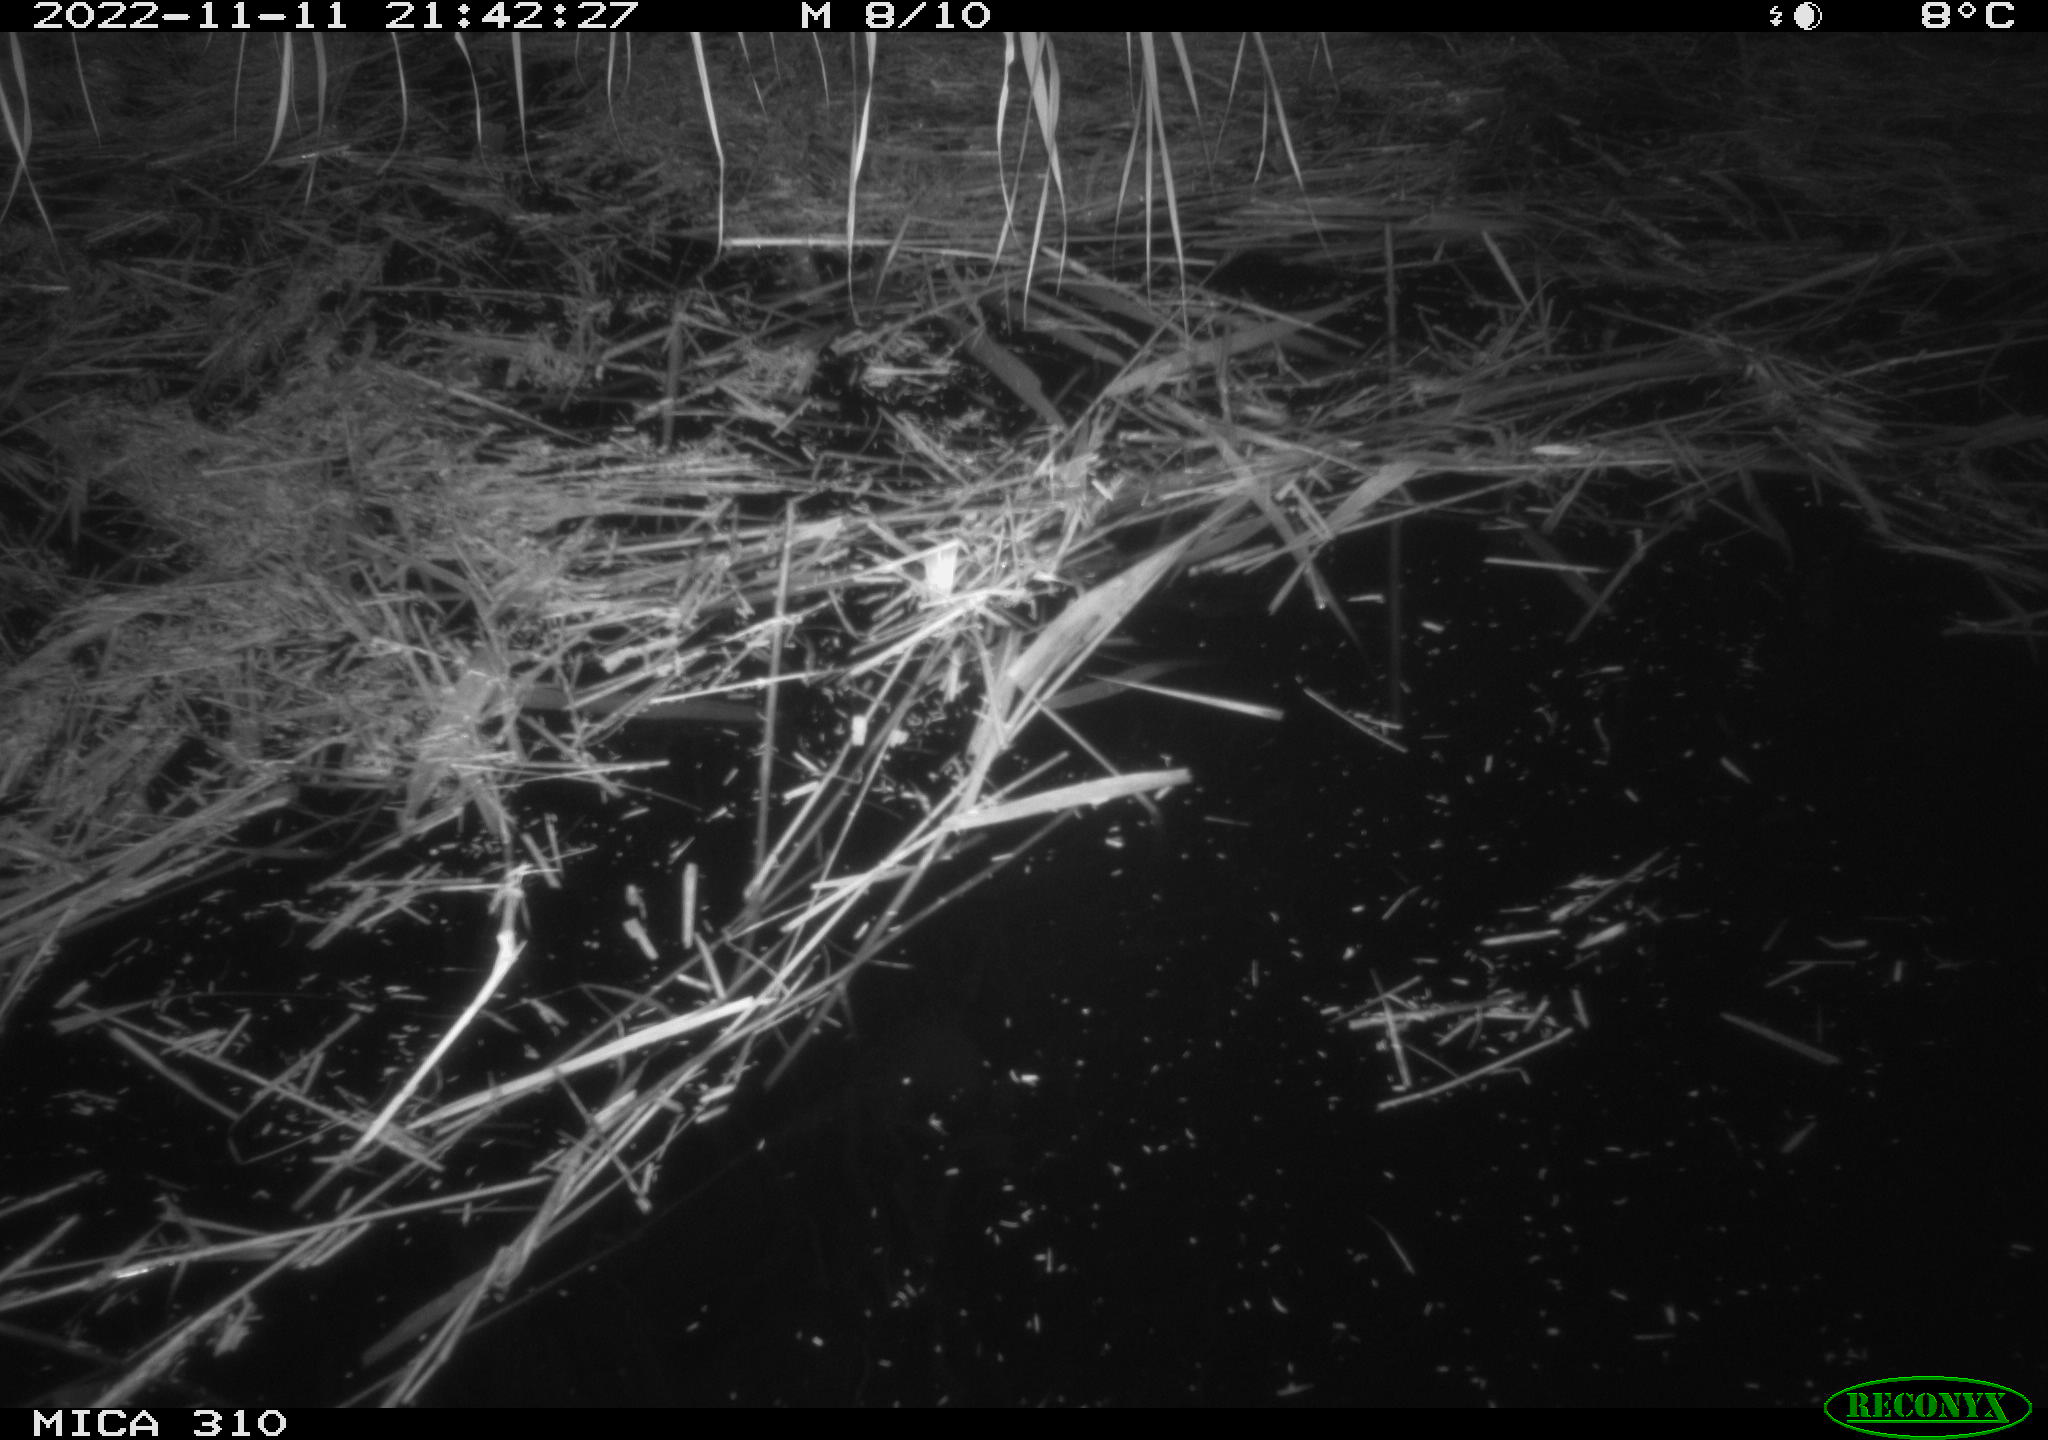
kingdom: Animalia
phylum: Chordata
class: Mammalia
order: Rodentia
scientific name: Rodentia
